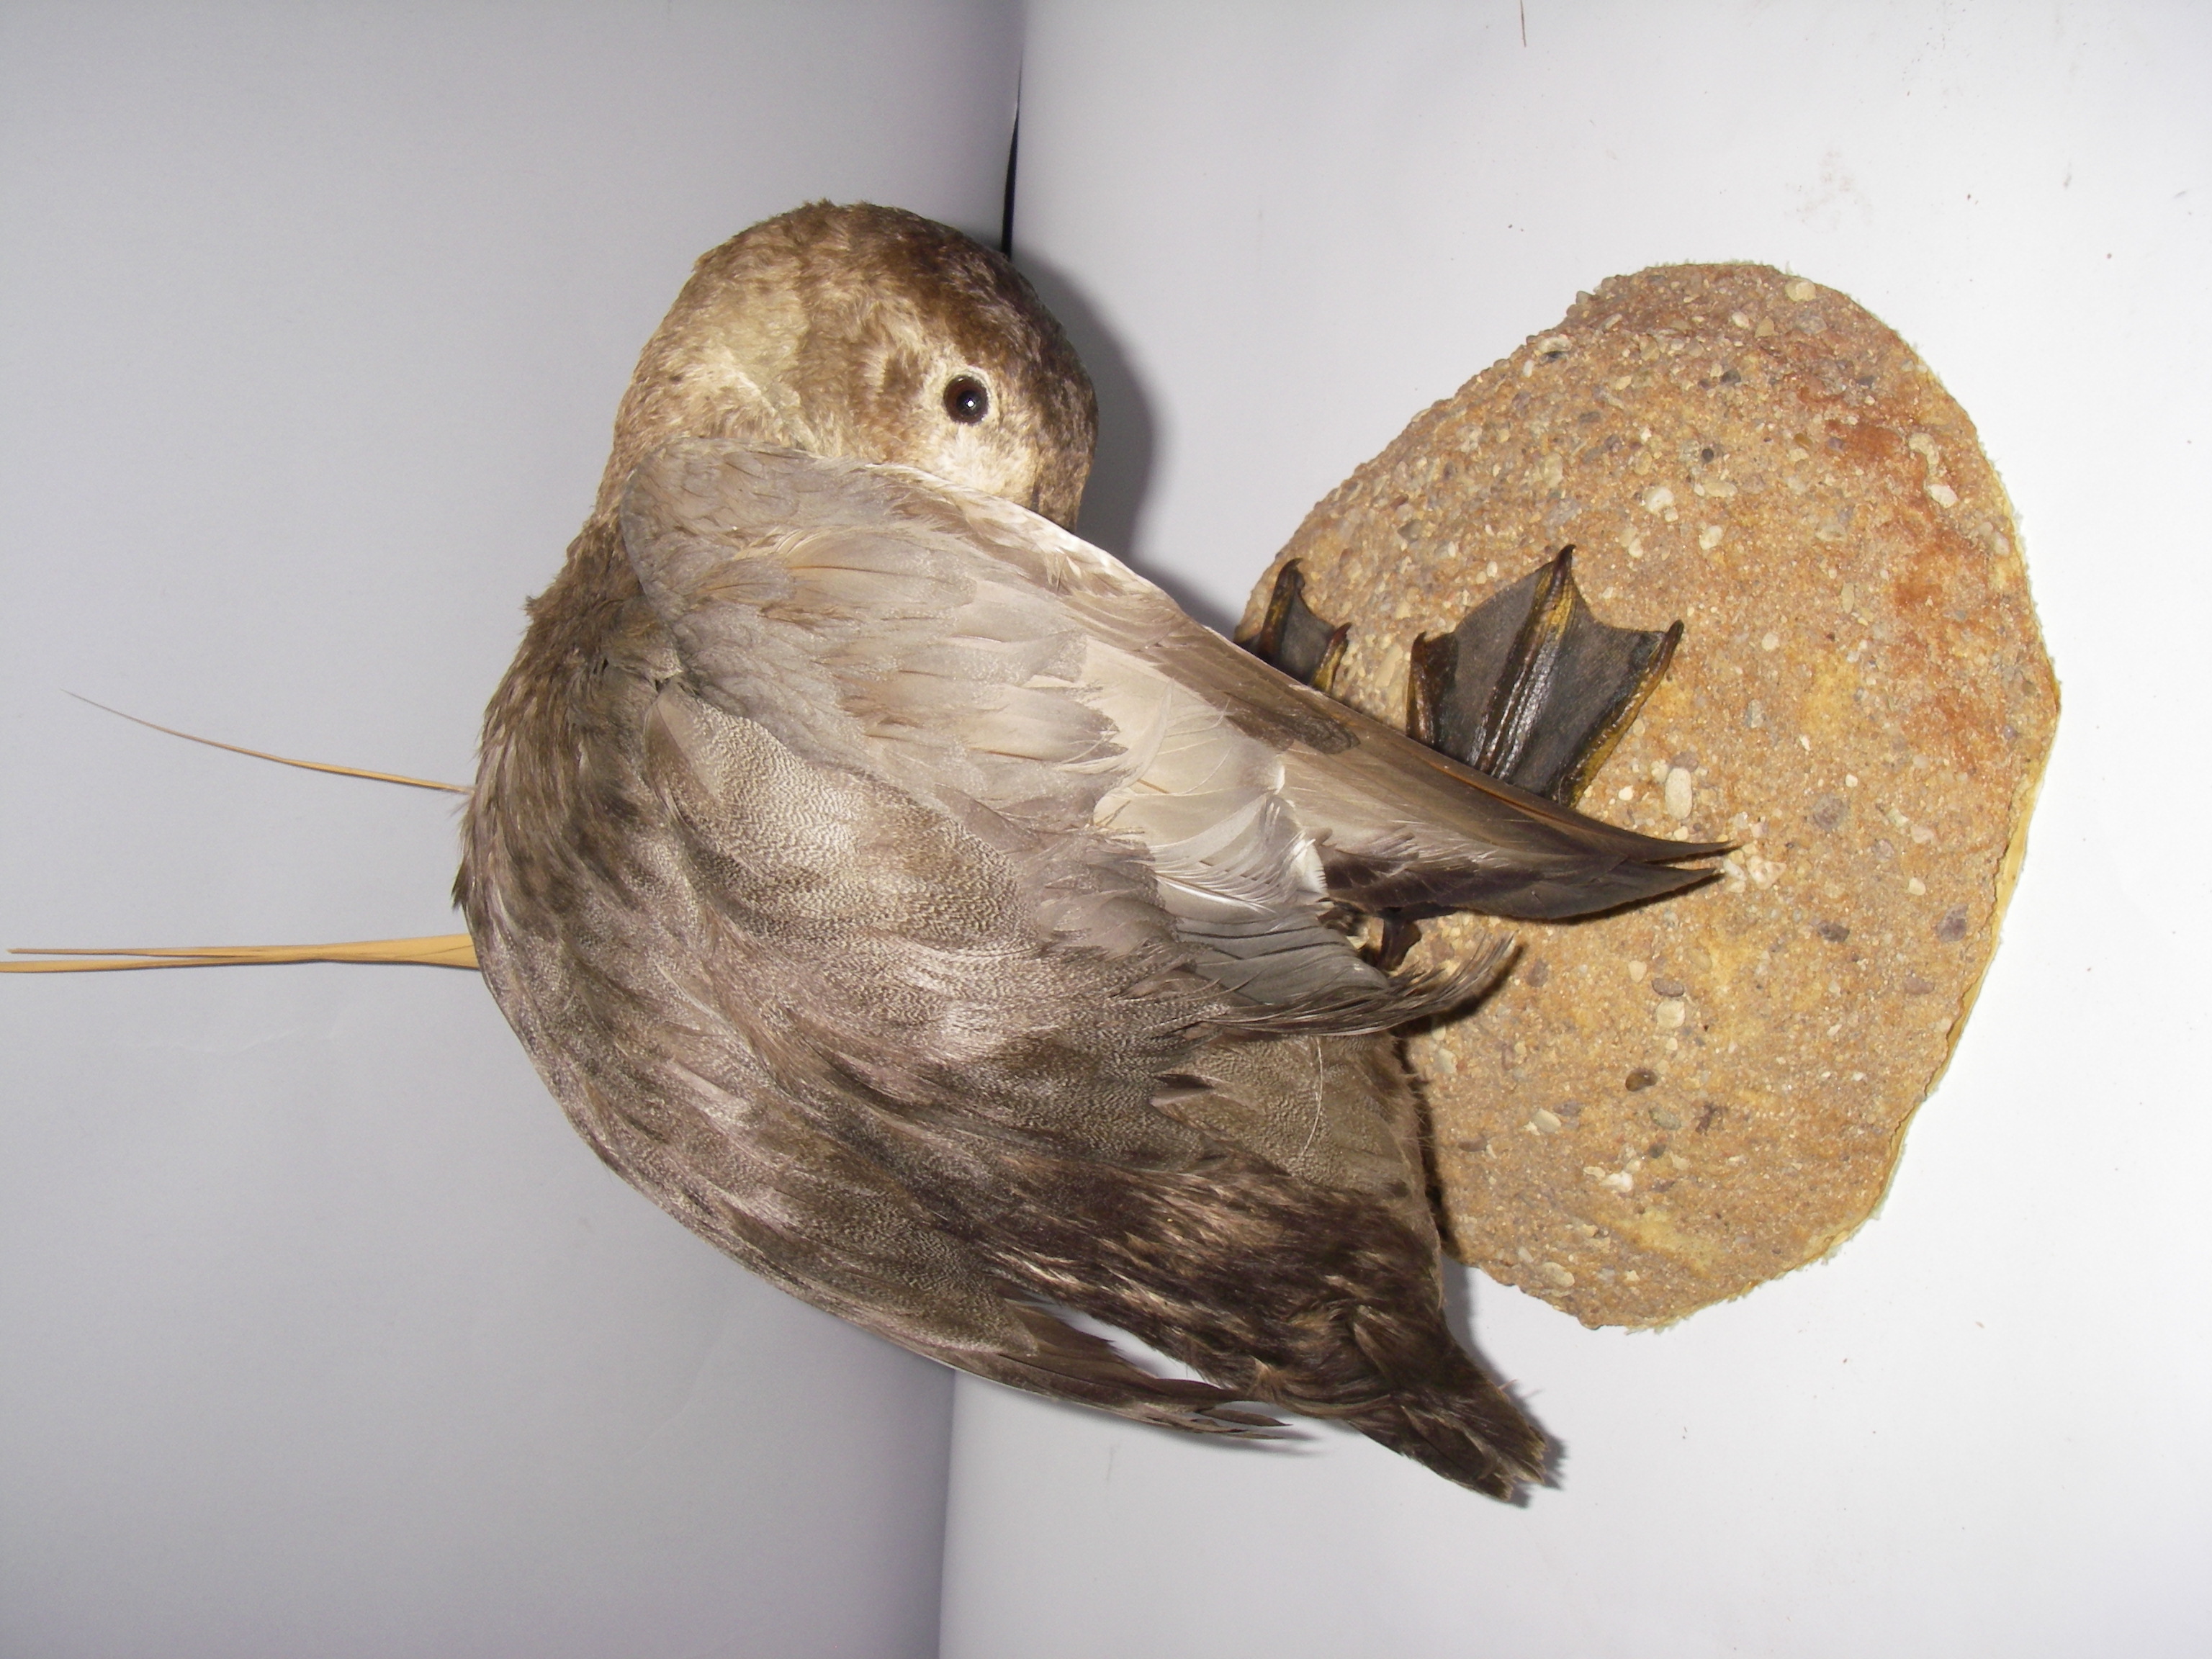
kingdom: Animalia
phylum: Chordata
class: Aves
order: Anseriformes
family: Anatidae
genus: Aythya
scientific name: Aythya marila
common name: Greater scaup
